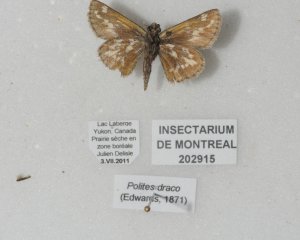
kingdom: Animalia
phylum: Arthropoda
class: Insecta
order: Lepidoptera
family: Hesperiidae
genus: Polites
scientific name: Polites sabuleti
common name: Draco Skipper
